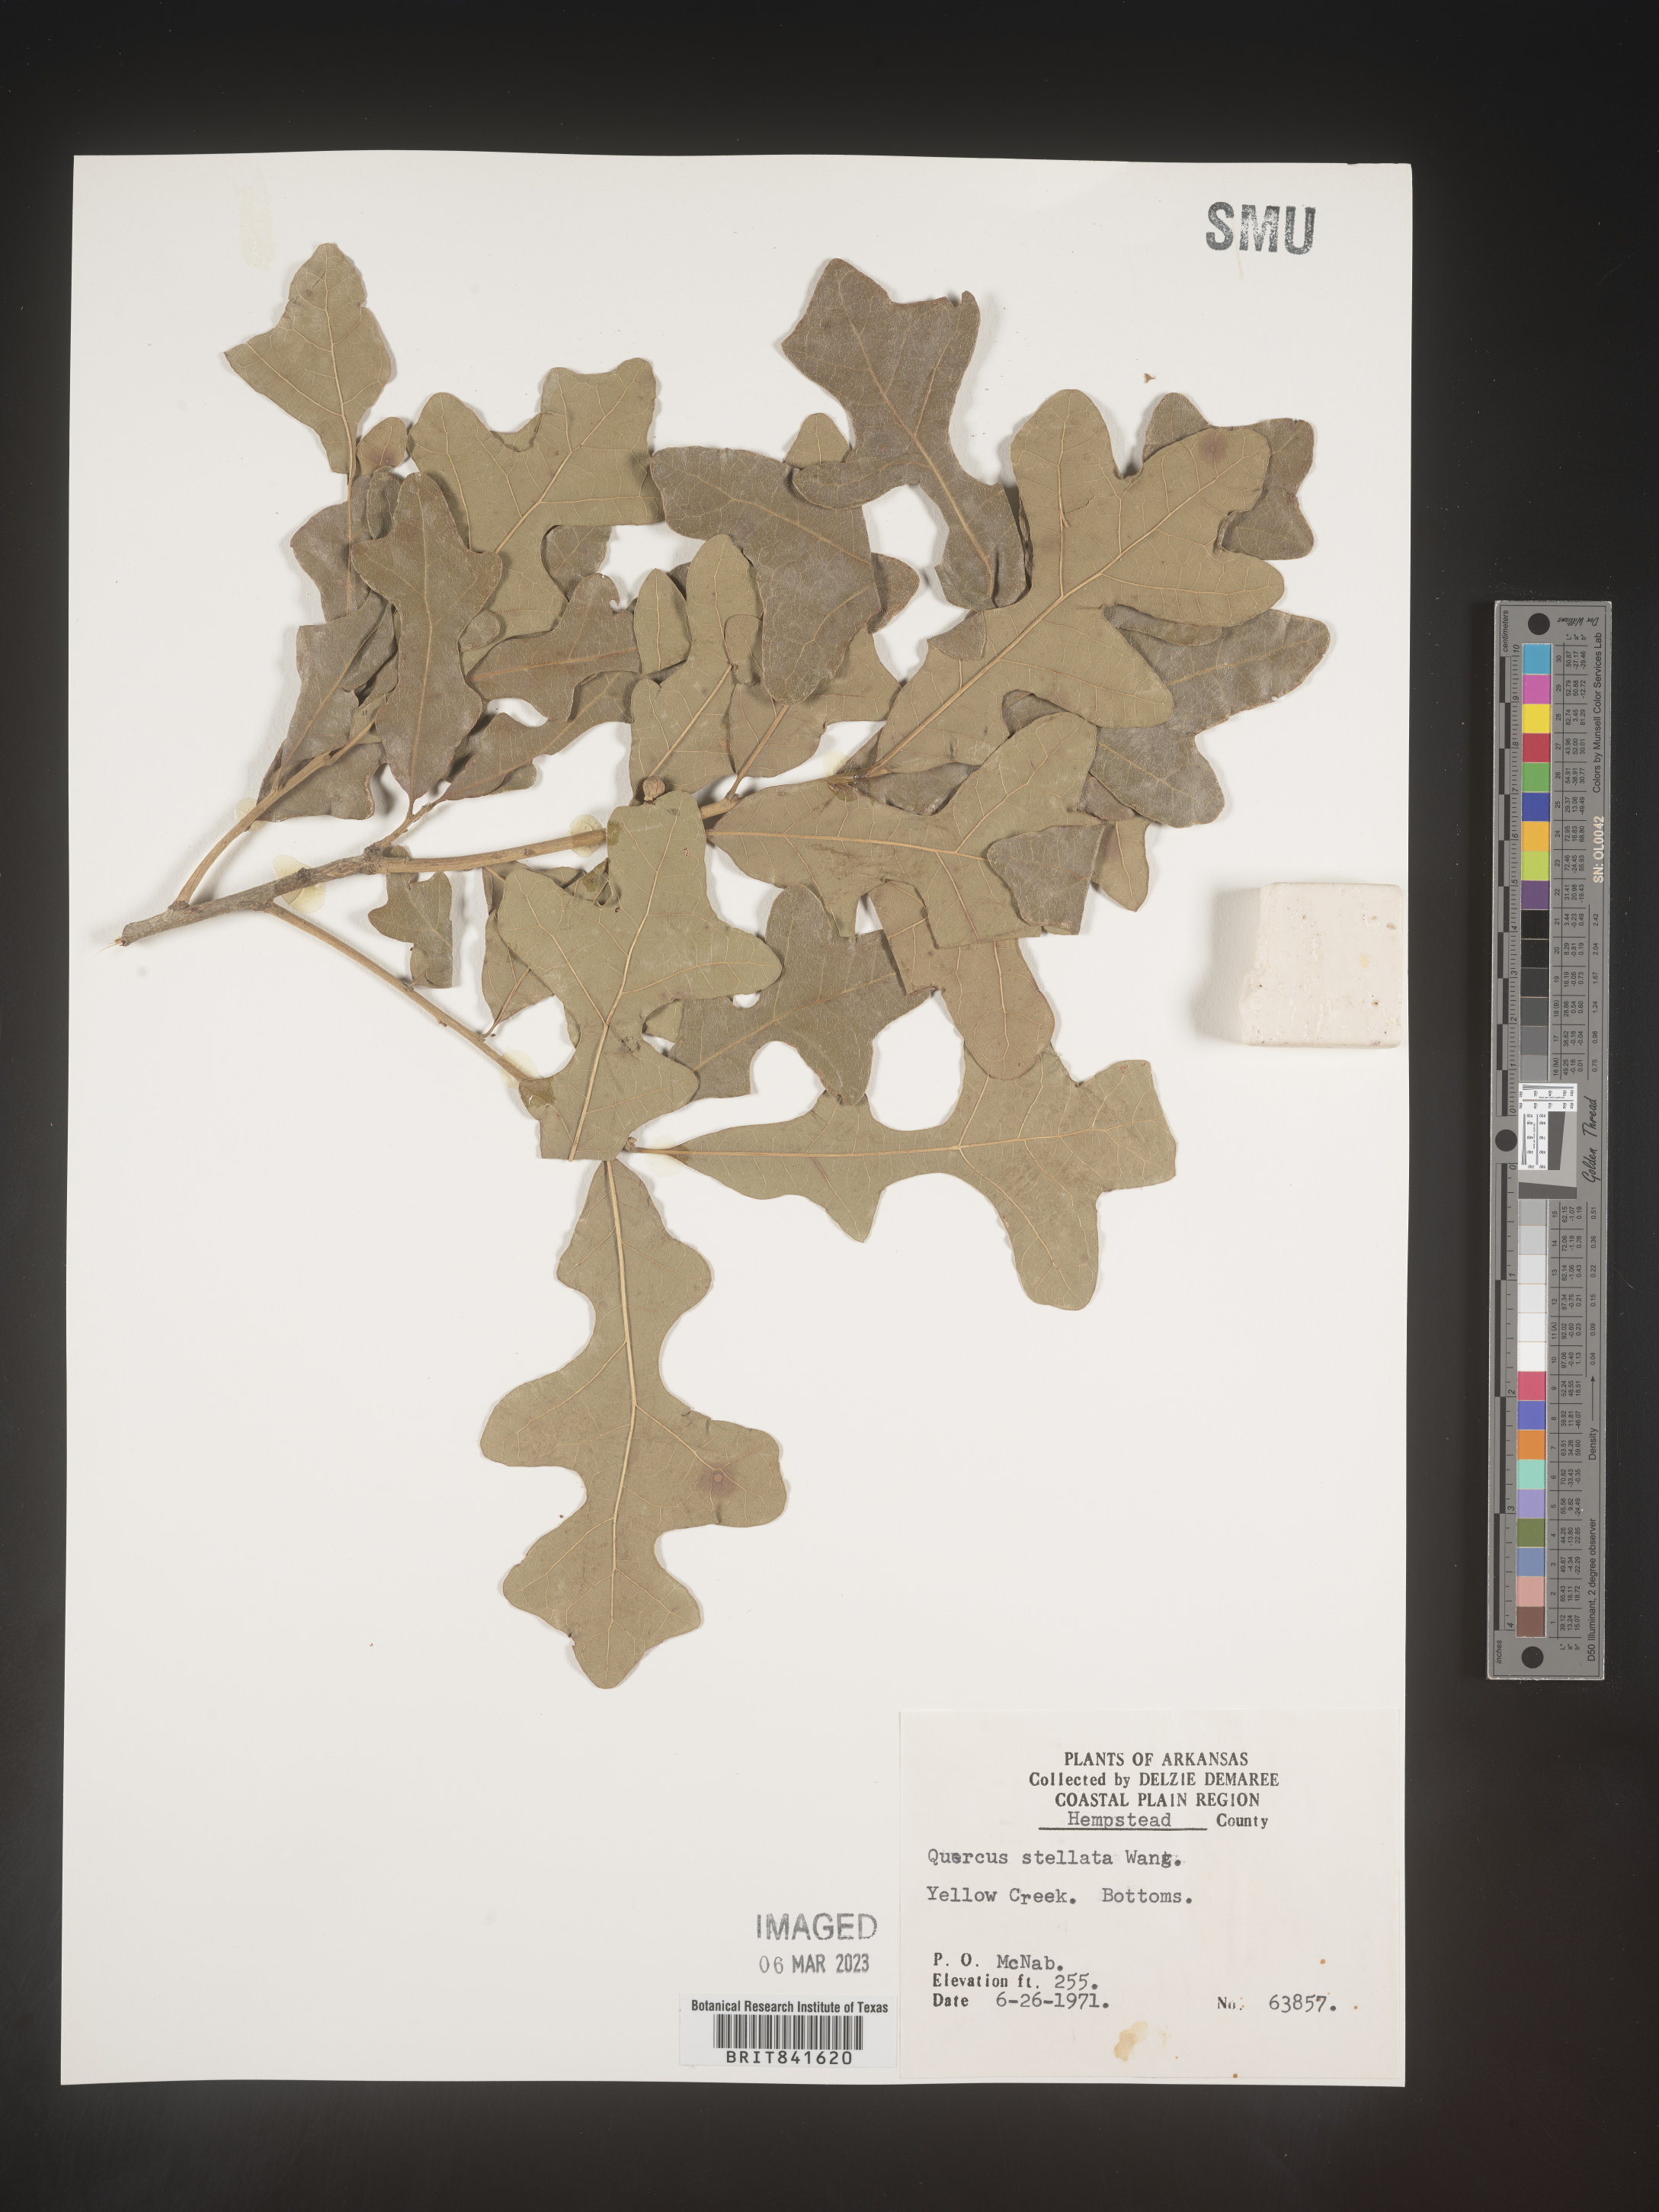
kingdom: Plantae
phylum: Tracheophyta
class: Magnoliopsida
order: Fagales
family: Fagaceae
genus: Quercus
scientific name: Quercus stellata
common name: Post oak
